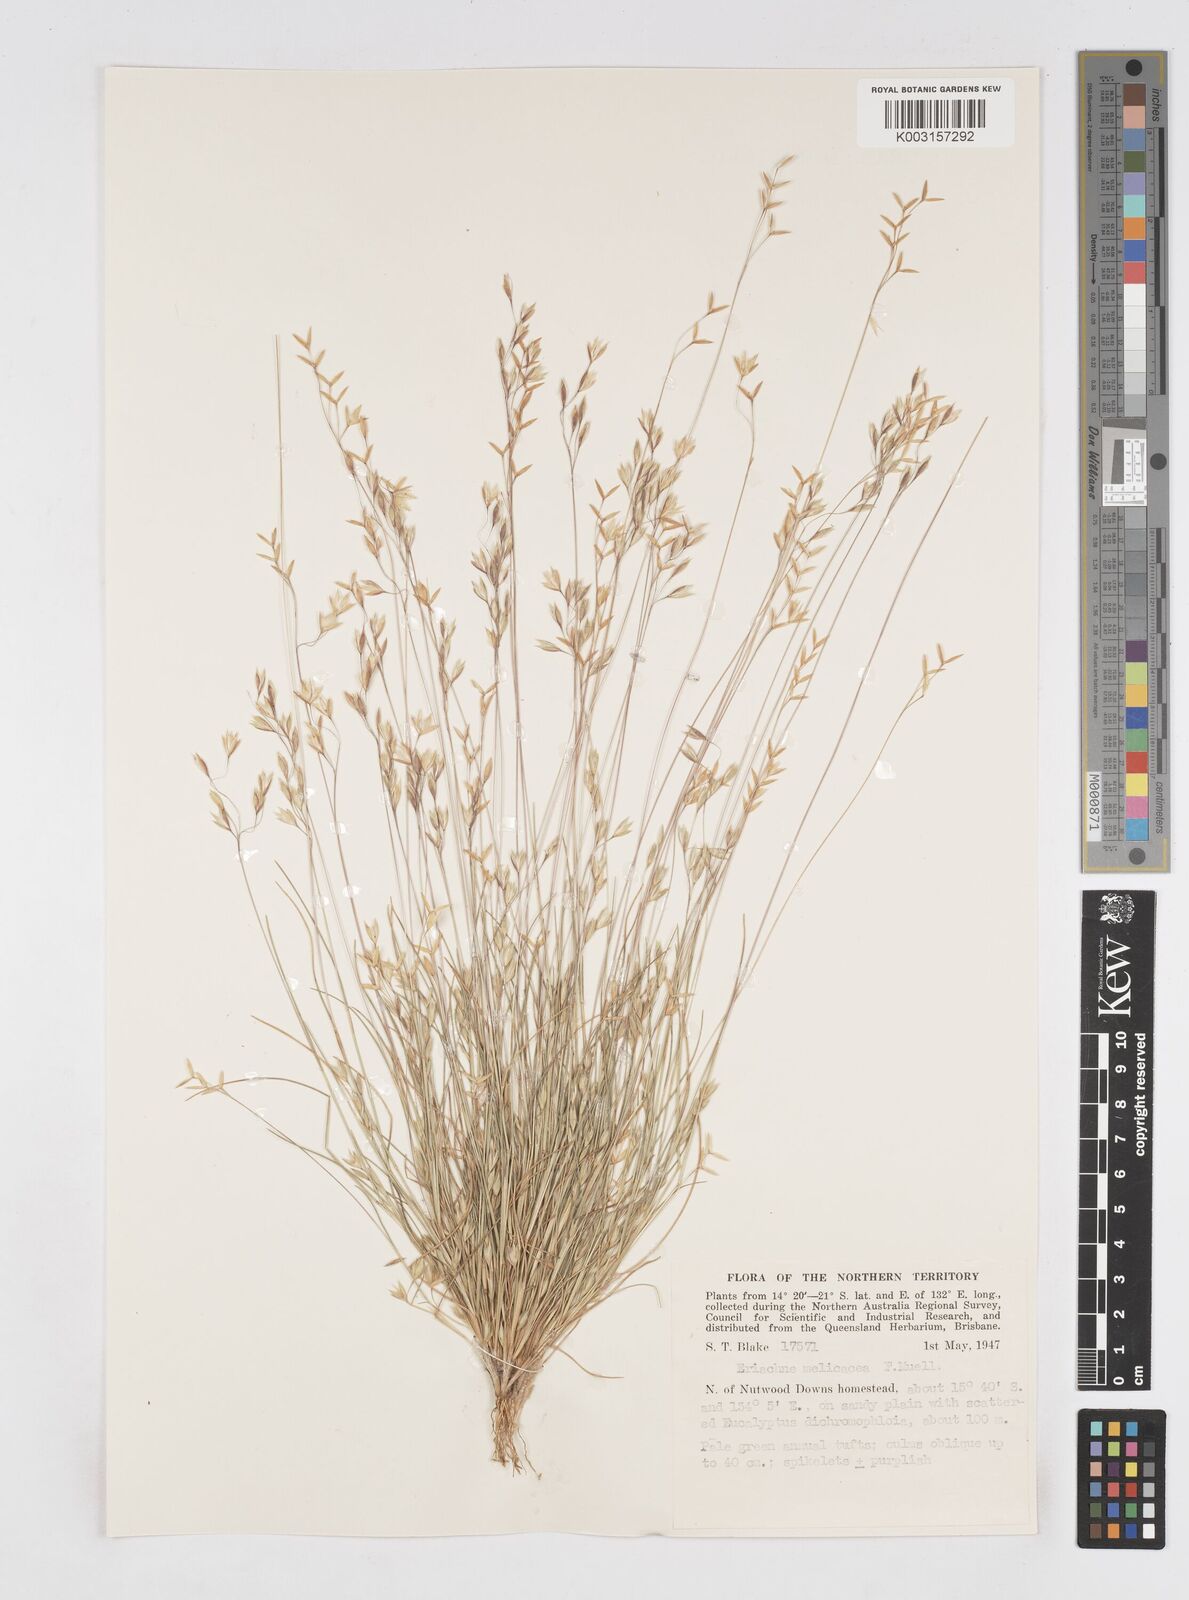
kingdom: Plantae
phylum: Tracheophyta
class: Liliopsida
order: Poales
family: Poaceae
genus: Eriachne
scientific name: Eriachne melicacea
